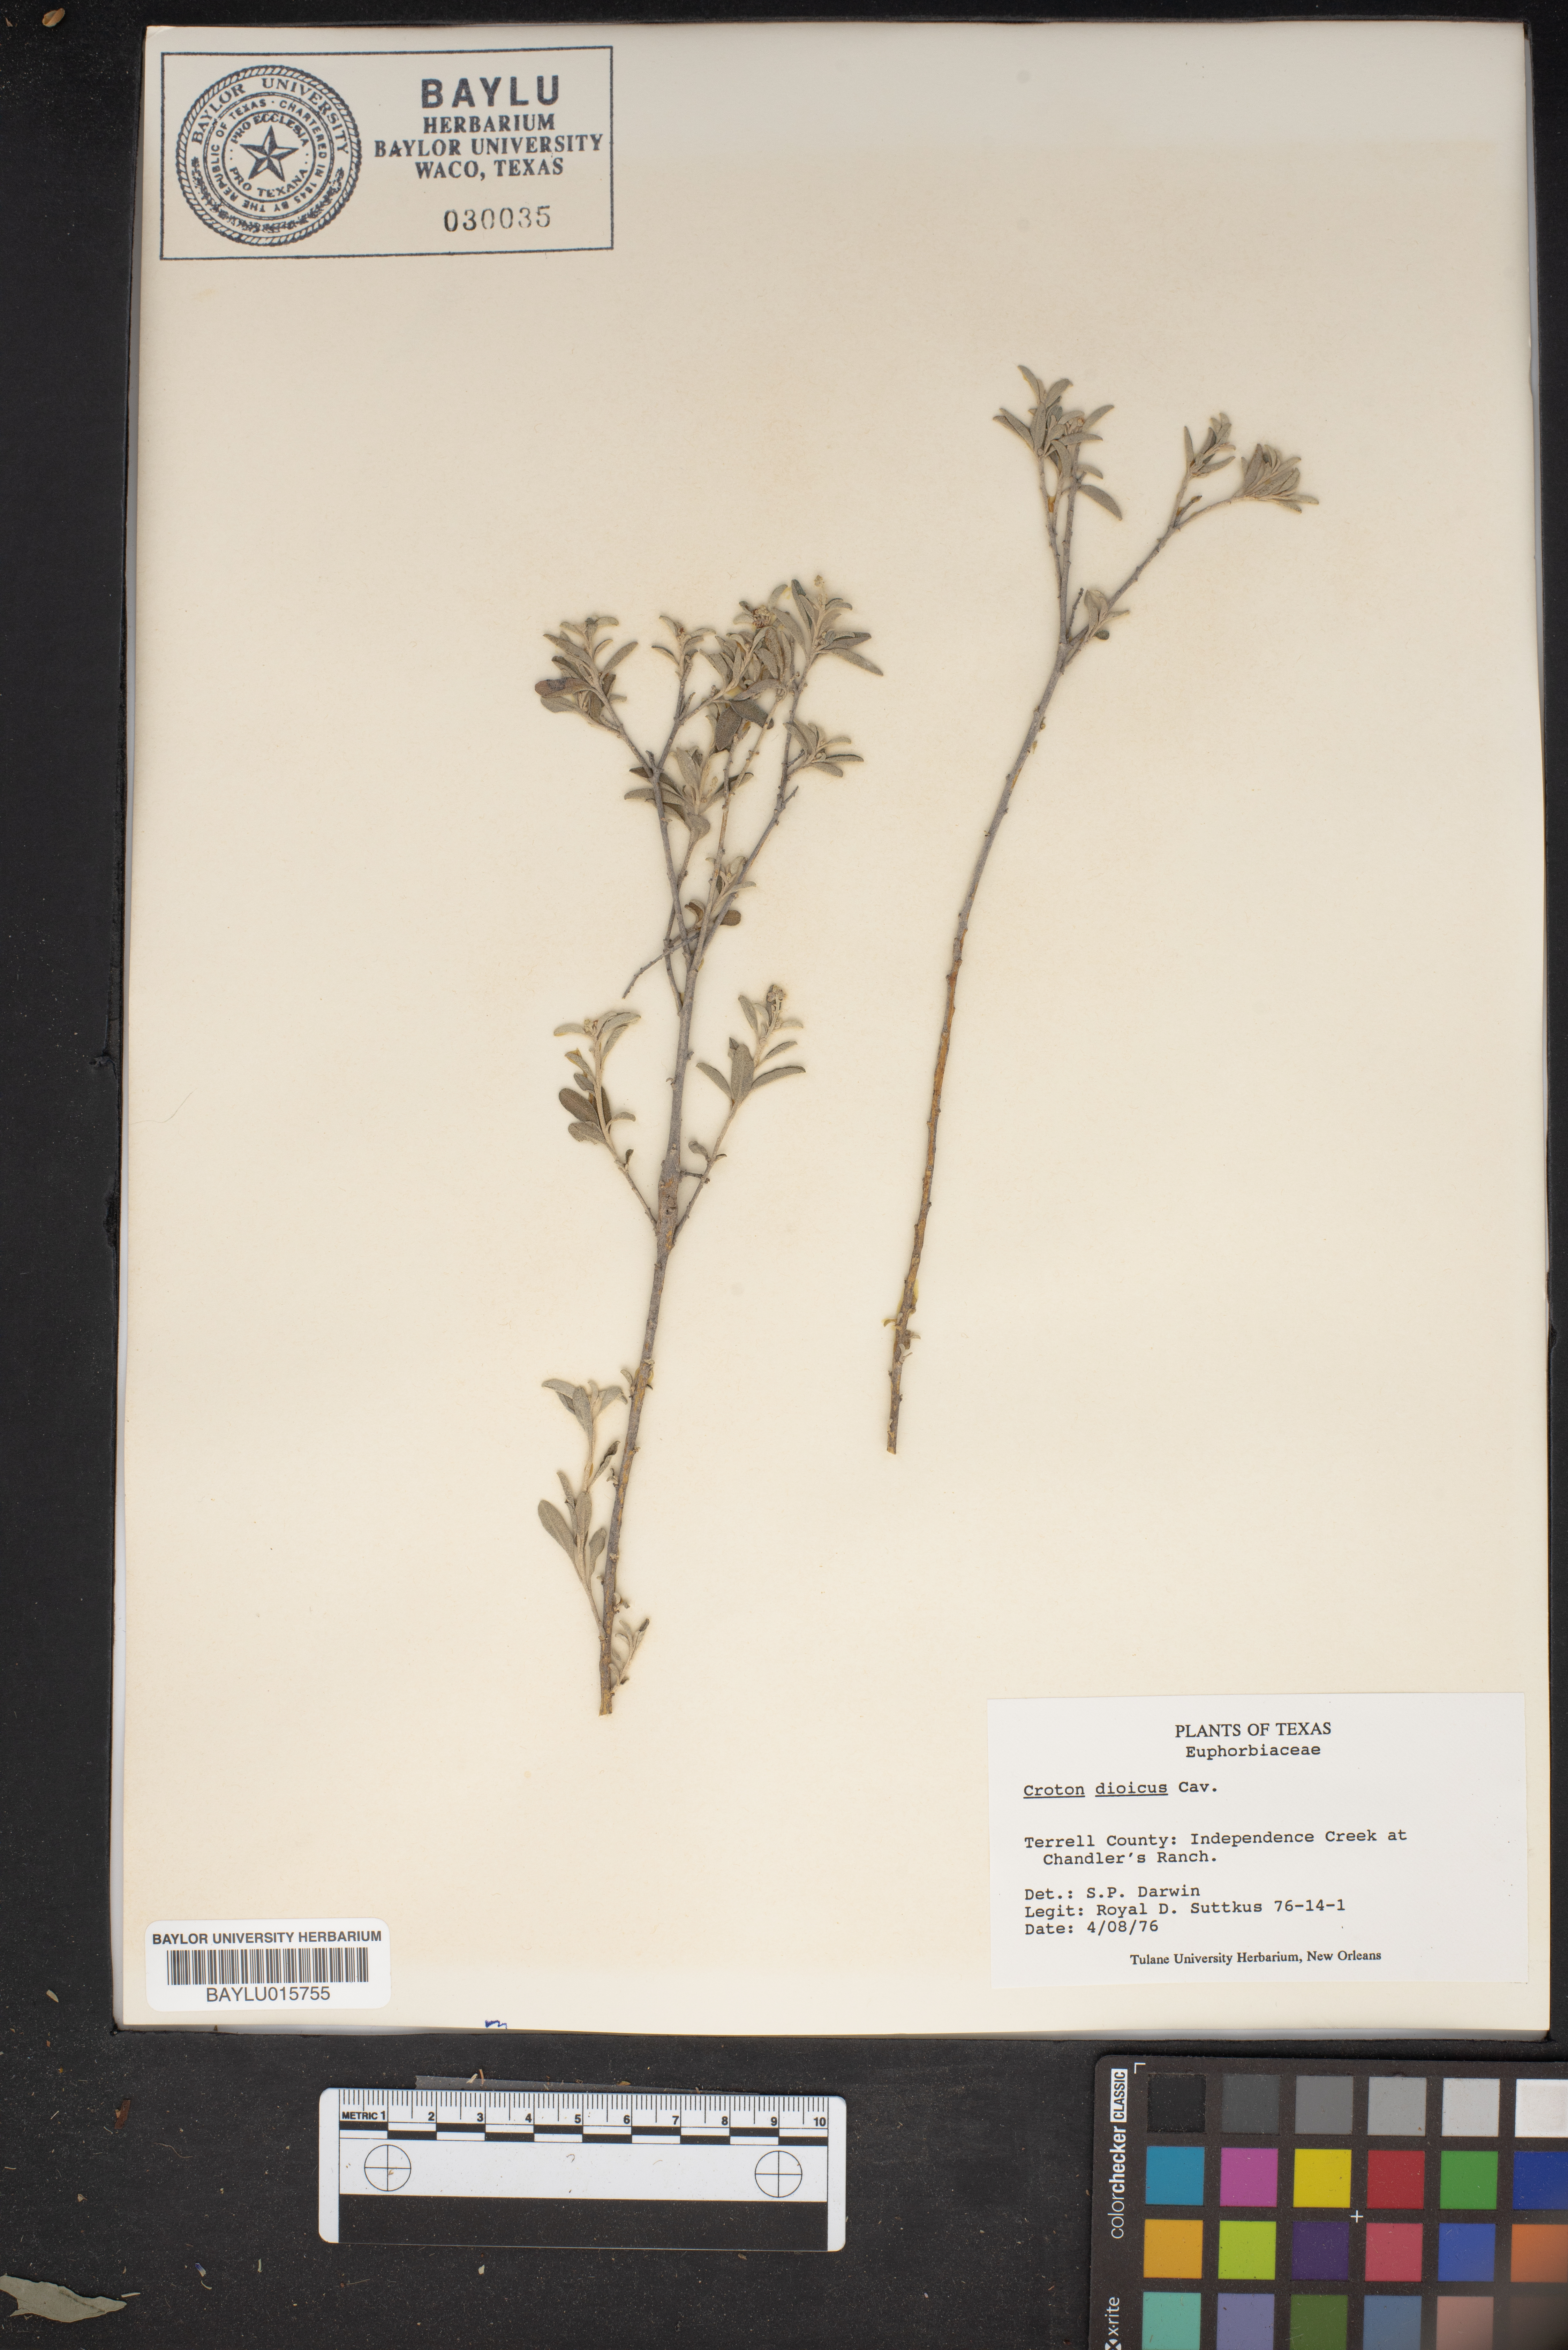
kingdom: Plantae
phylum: Tracheophyta
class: Magnoliopsida
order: Malpighiales
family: Euphorbiaceae
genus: Croton
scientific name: Croton dioicus
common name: Grassland croton
